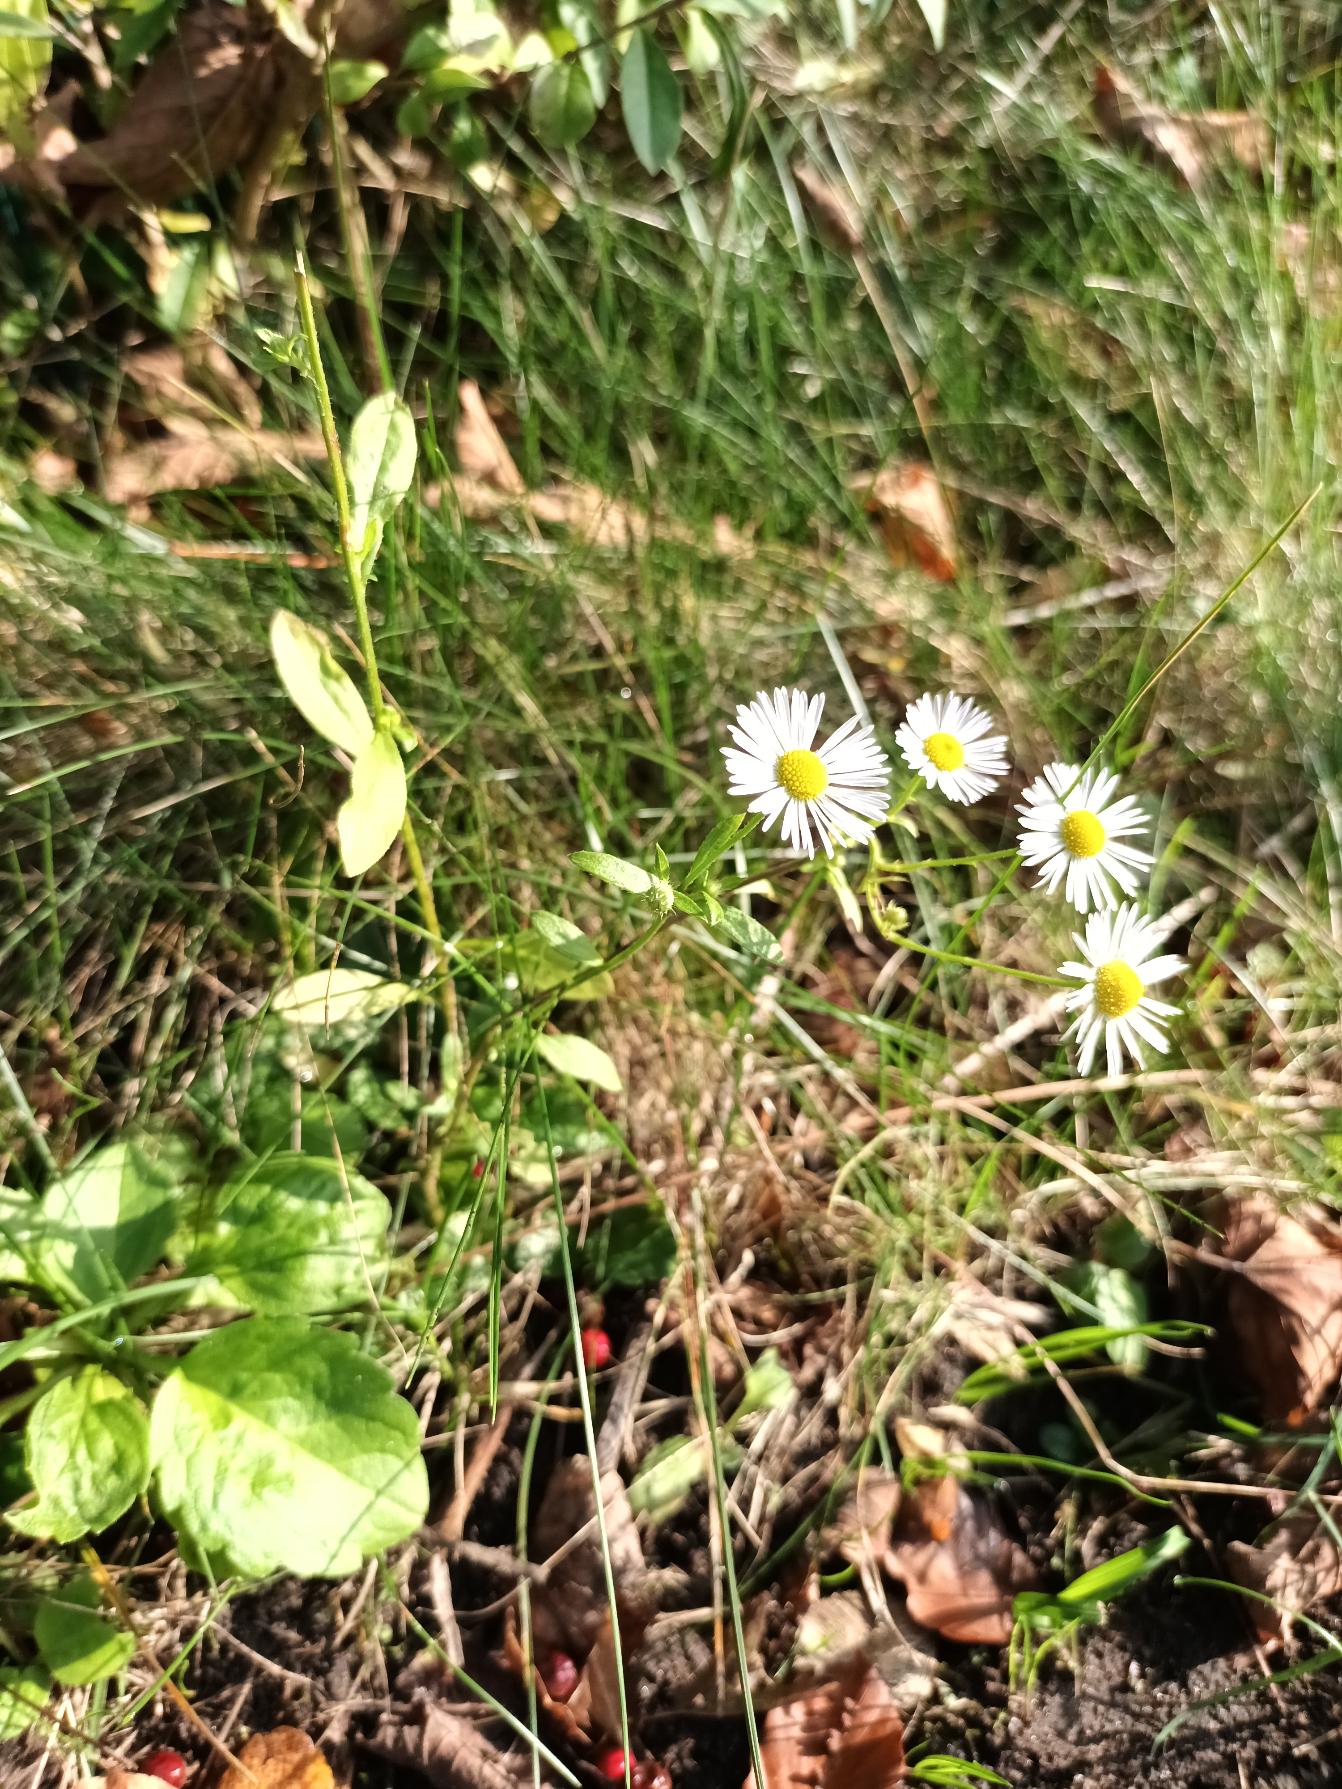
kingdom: Plantae
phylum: Tracheophyta
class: Magnoliopsida
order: Asterales
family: Asteraceae
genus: Erigeron
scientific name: Erigeron annuus
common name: Smalstråle
